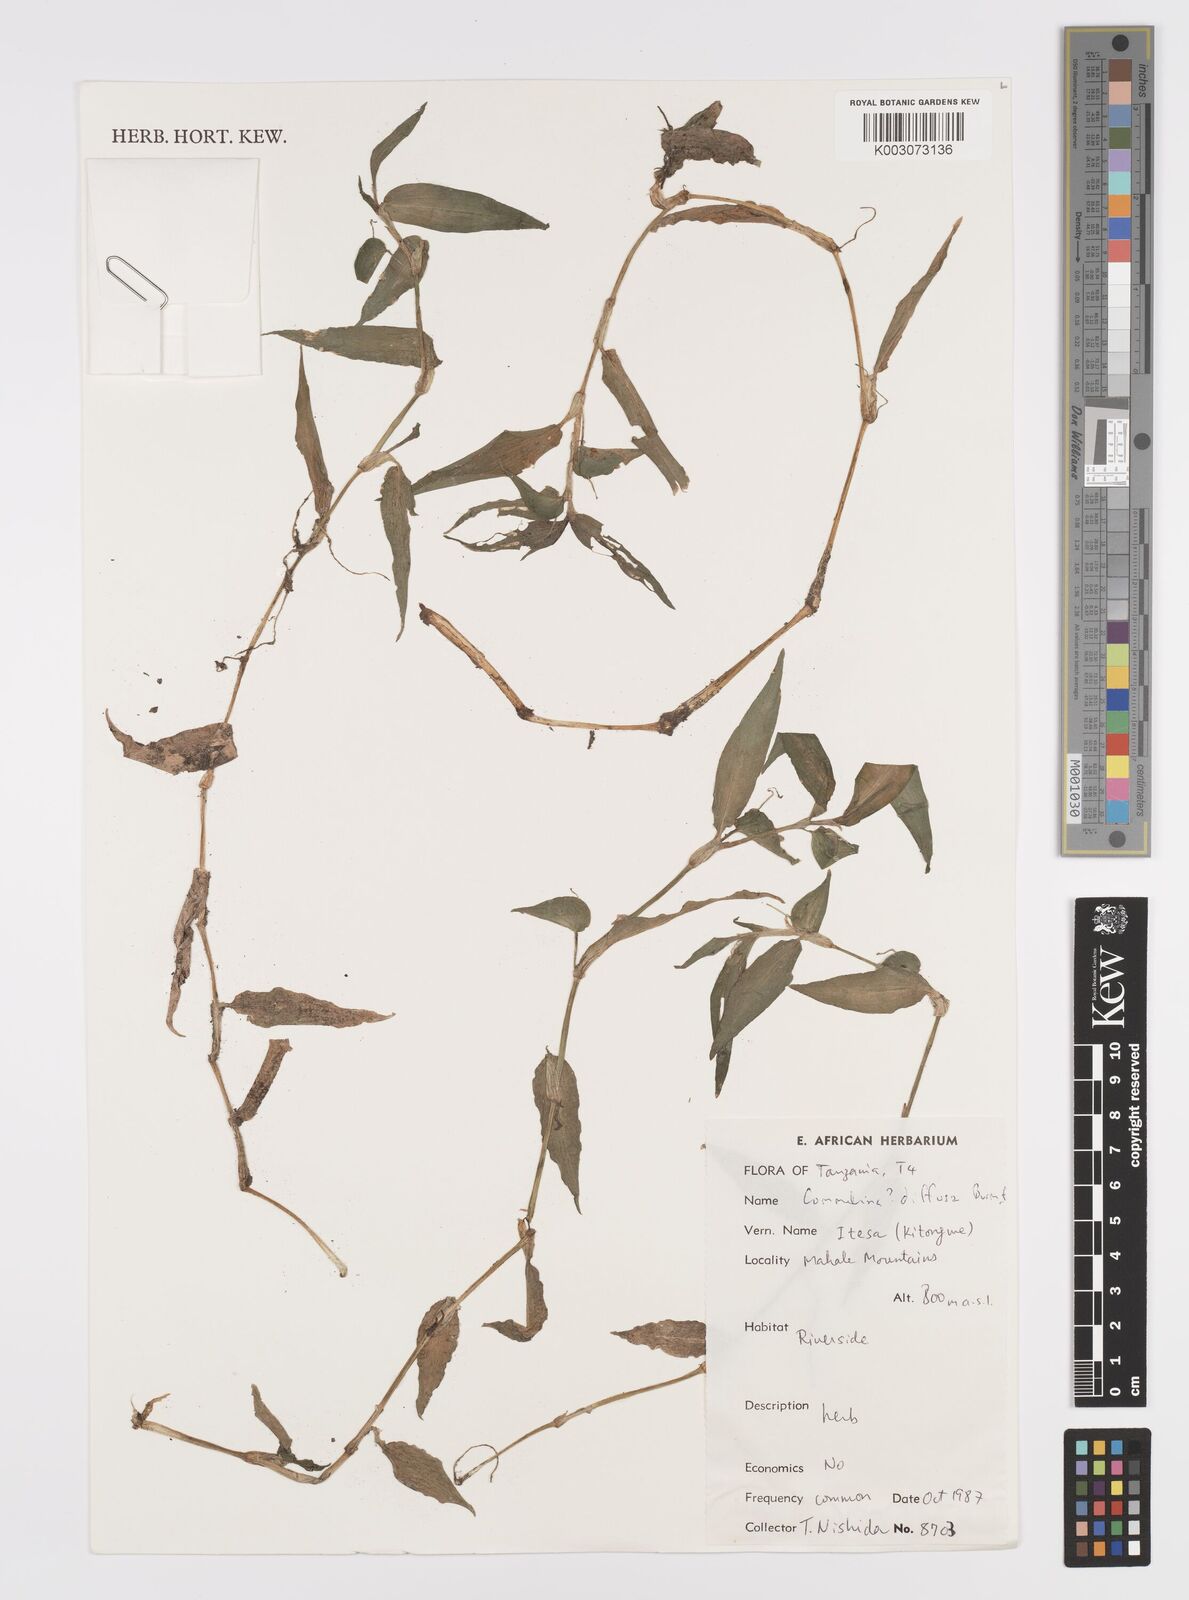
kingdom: Plantae
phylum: Tracheophyta
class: Liliopsida
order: Commelinales
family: Commelinaceae
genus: Commelina
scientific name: Commelina diffusa
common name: Climbing dayflower
